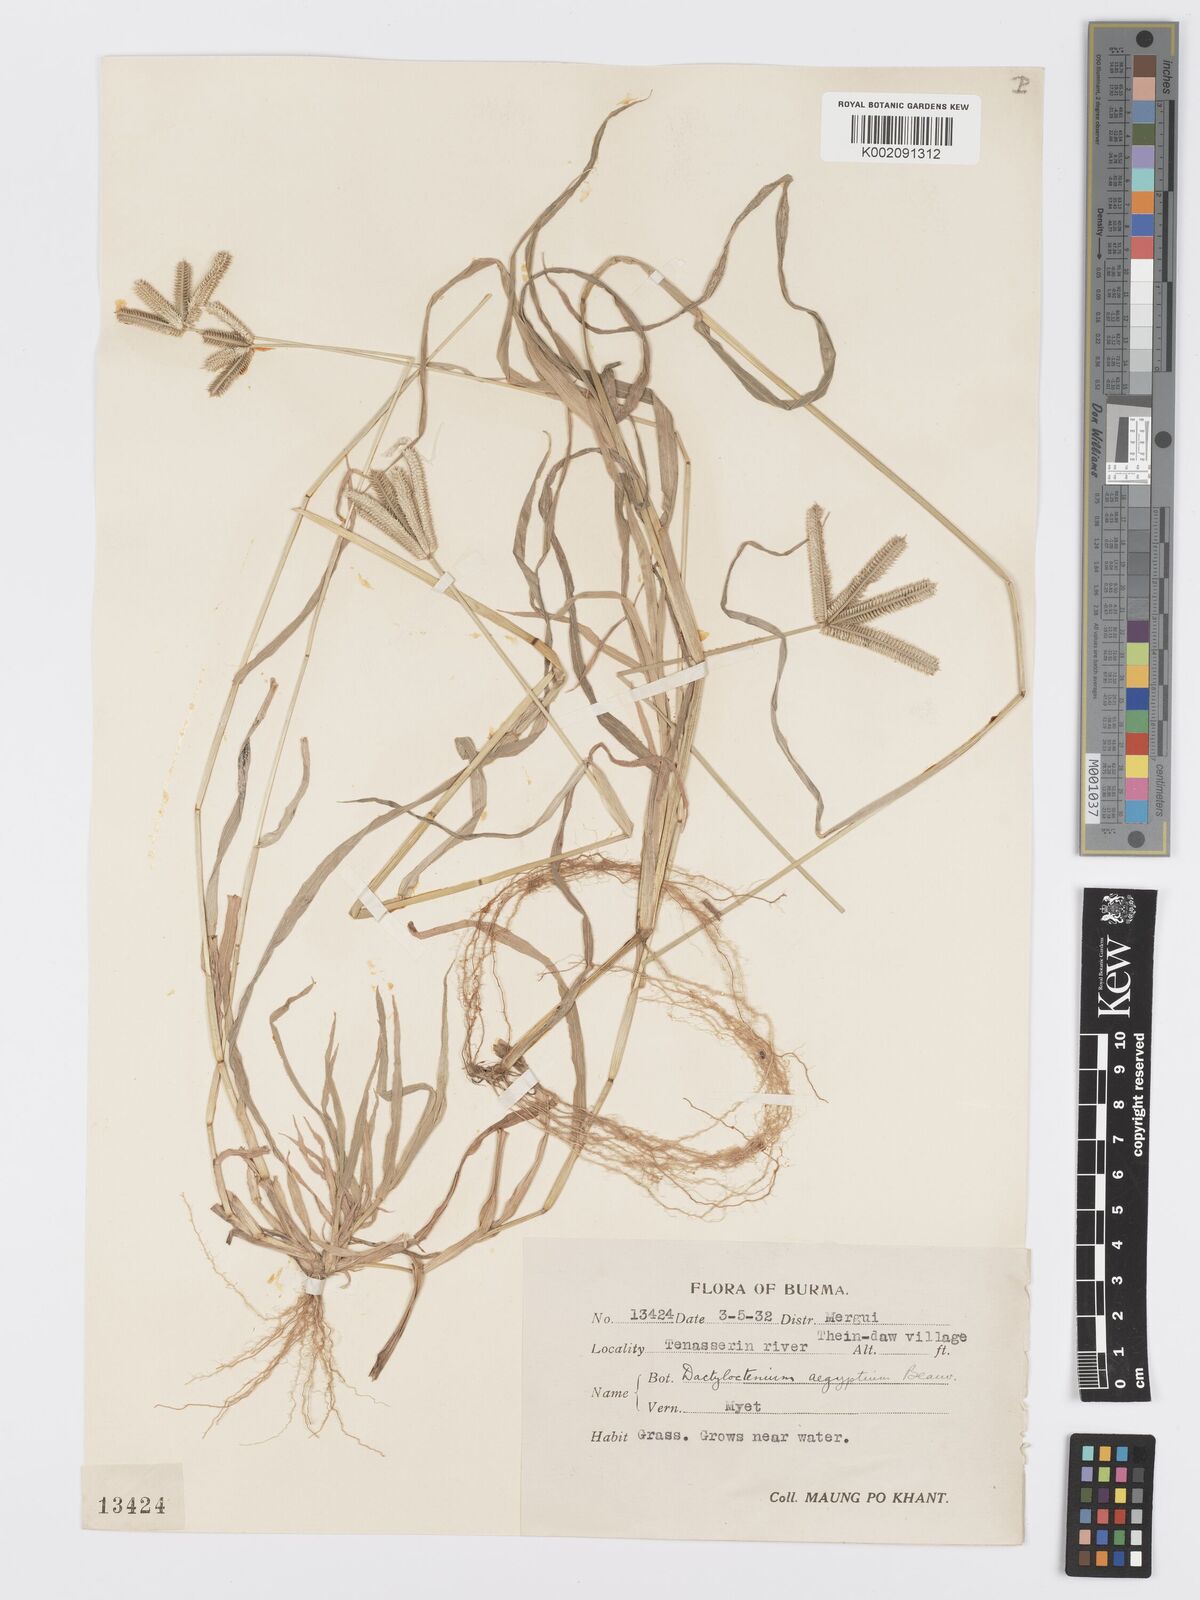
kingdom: Plantae
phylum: Tracheophyta
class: Liliopsida
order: Poales
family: Poaceae
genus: Dactyloctenium
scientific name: Dactyloctenium aegyptium
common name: Egyptian grass
